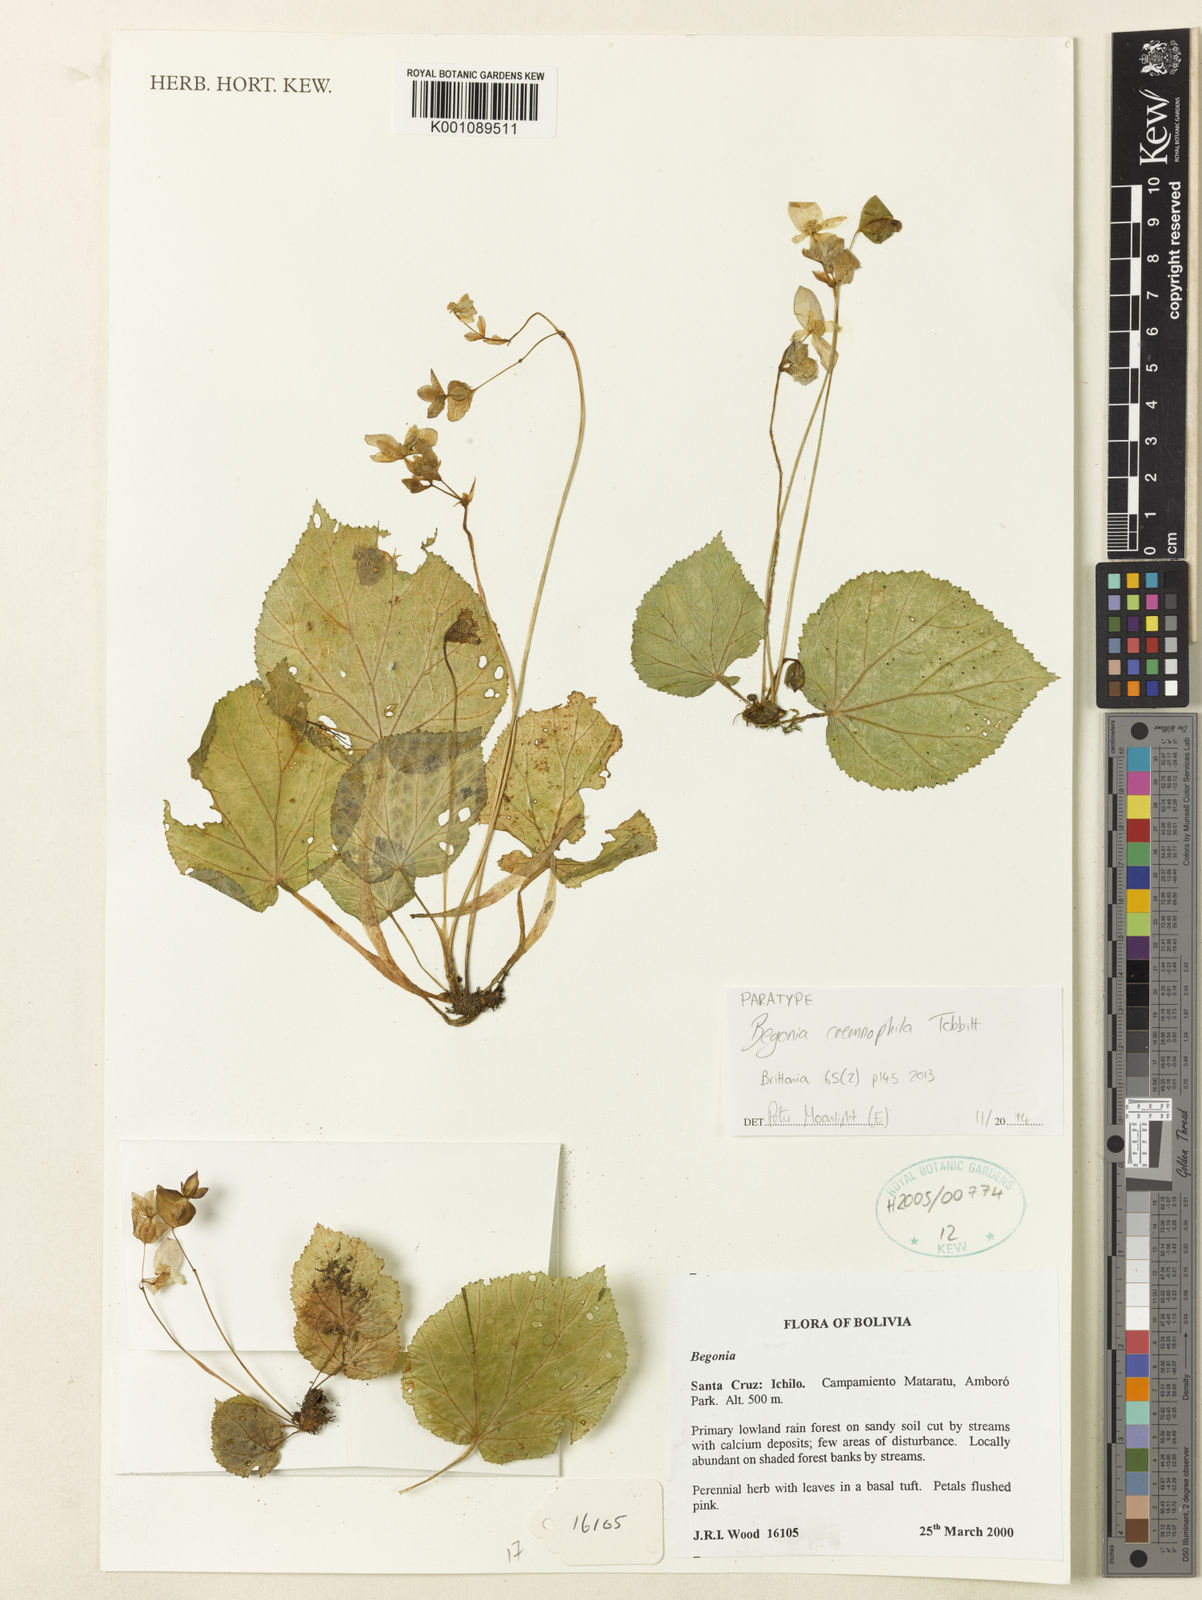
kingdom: Plantae
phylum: Tracheophyta
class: Magnoliopsida
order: Cucurbitales
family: Begoniaceae
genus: Begonia
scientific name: Begonia cremnophila
